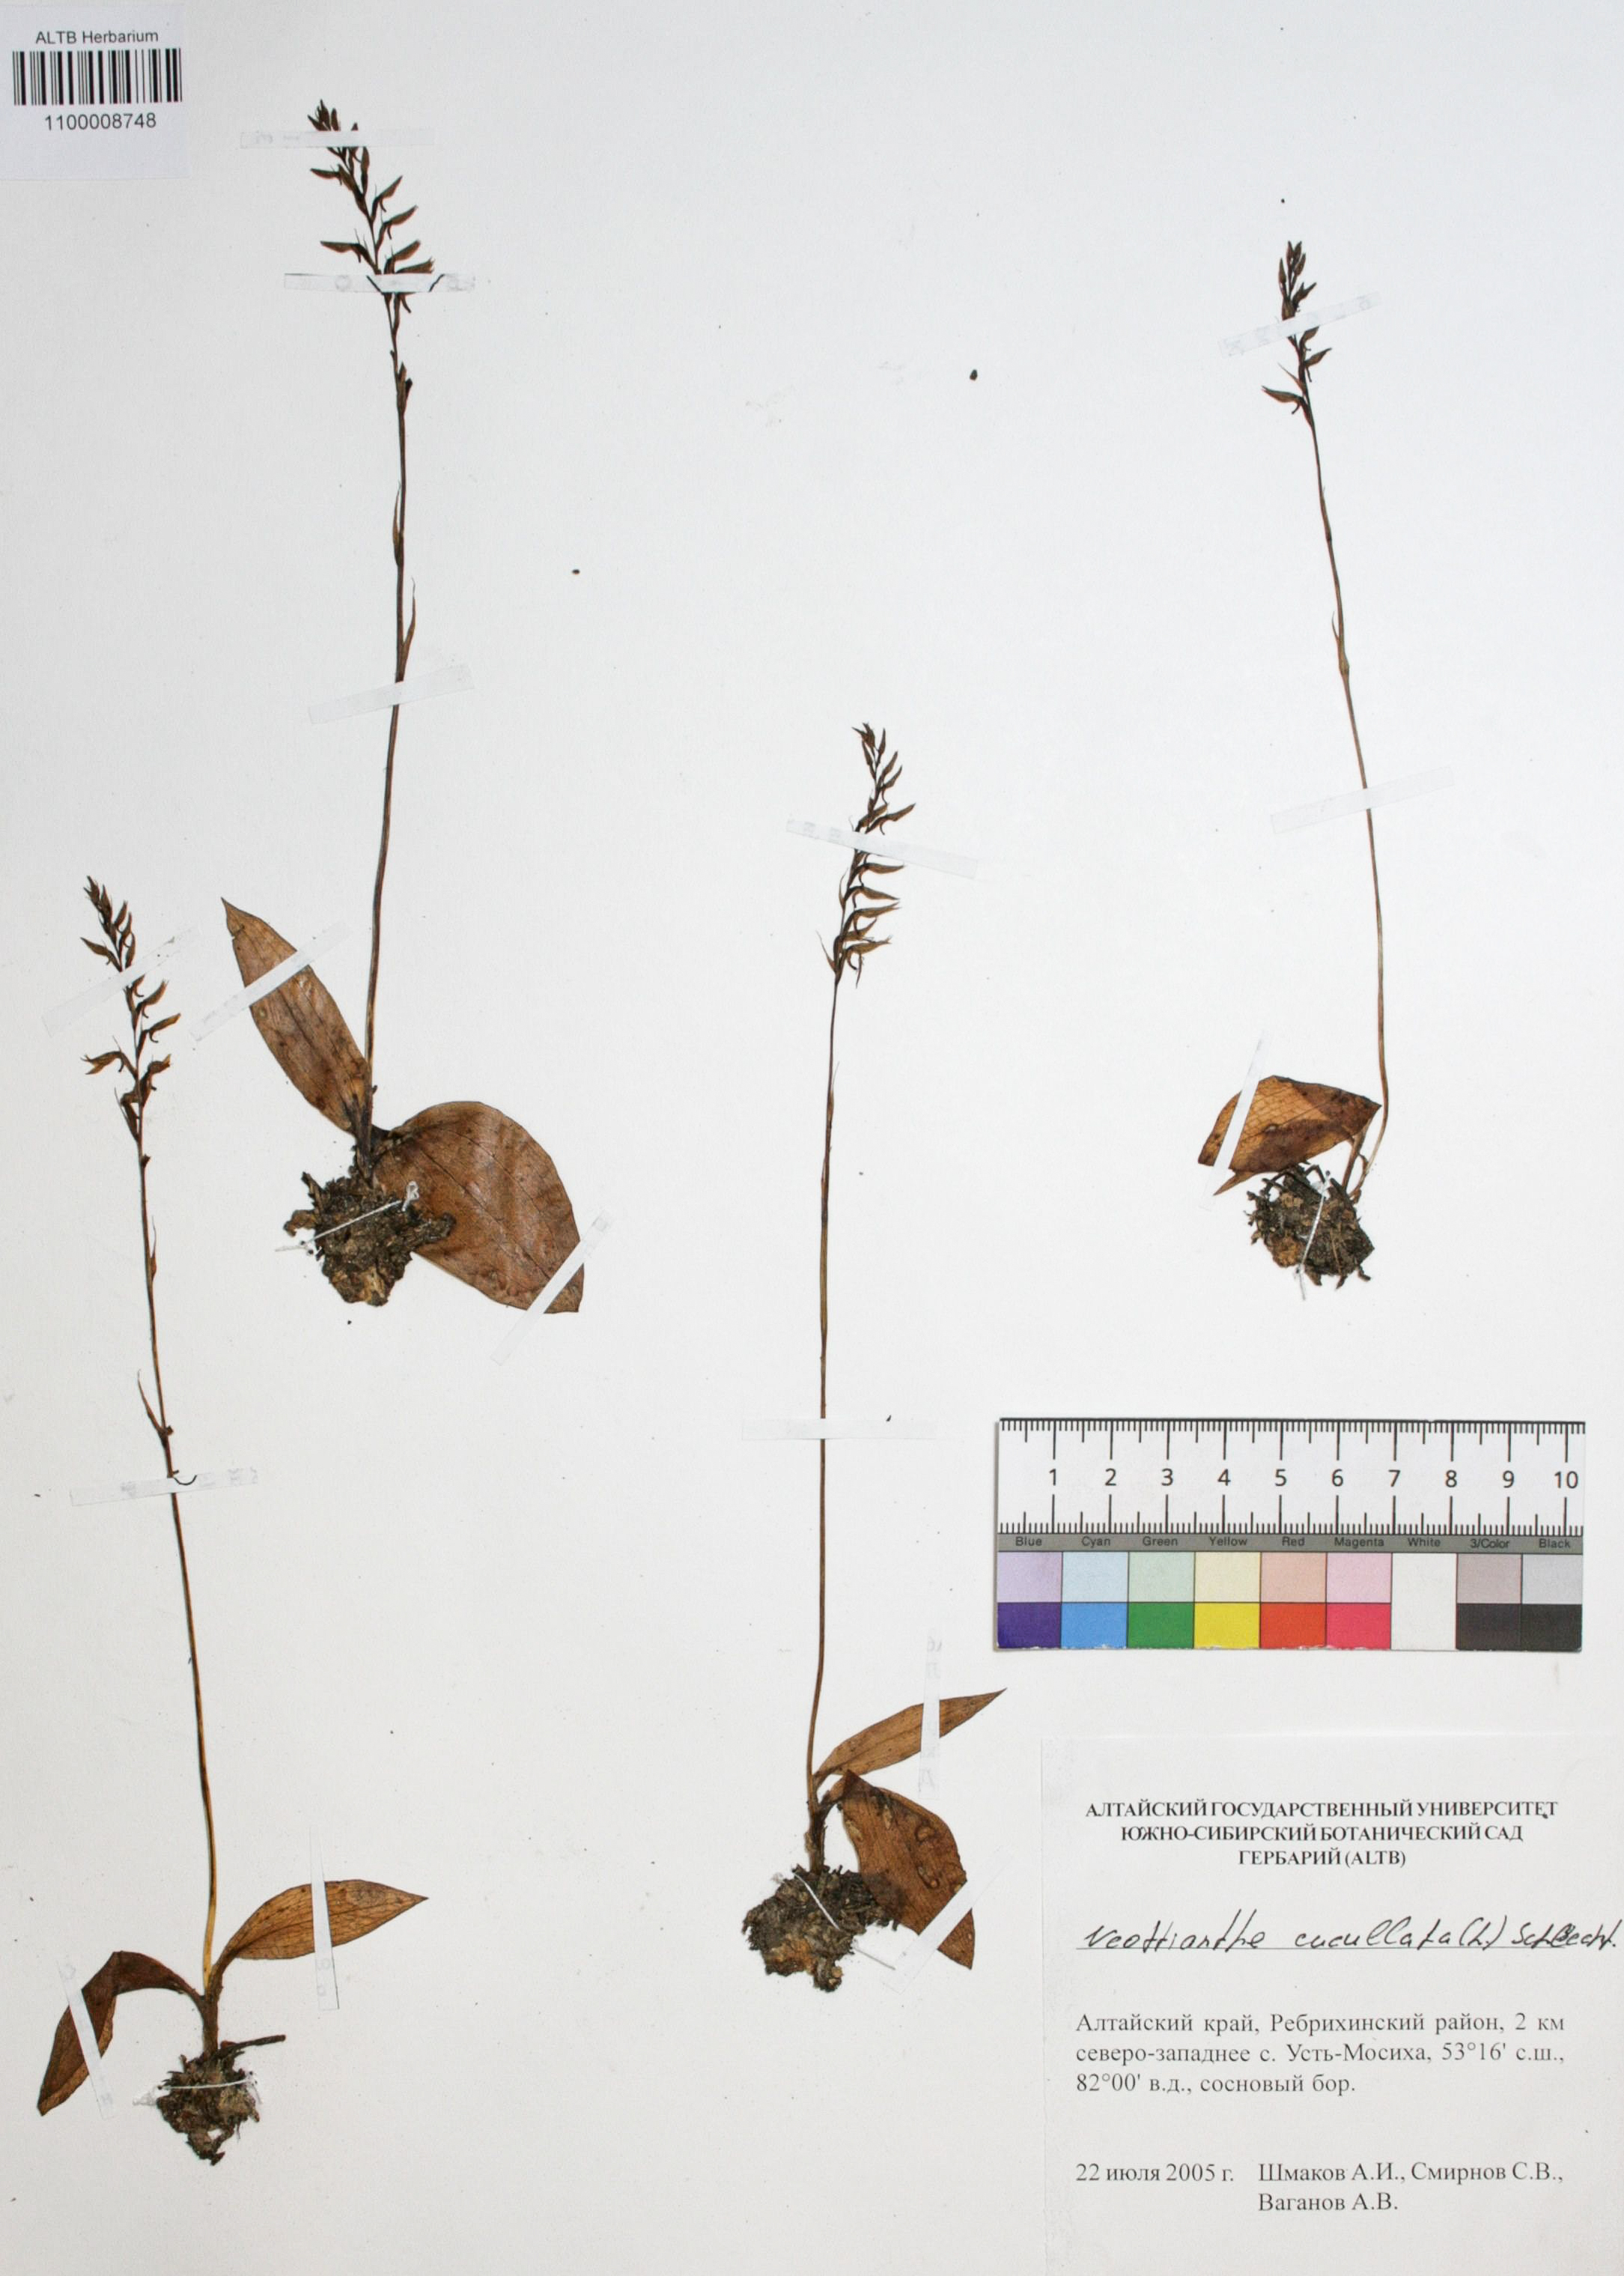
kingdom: Plantae
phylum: Tracheophyta
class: Liliopsida
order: Asparagales
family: Orchidaceae
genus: Hemipilia
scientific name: Hemipilia cucullata
